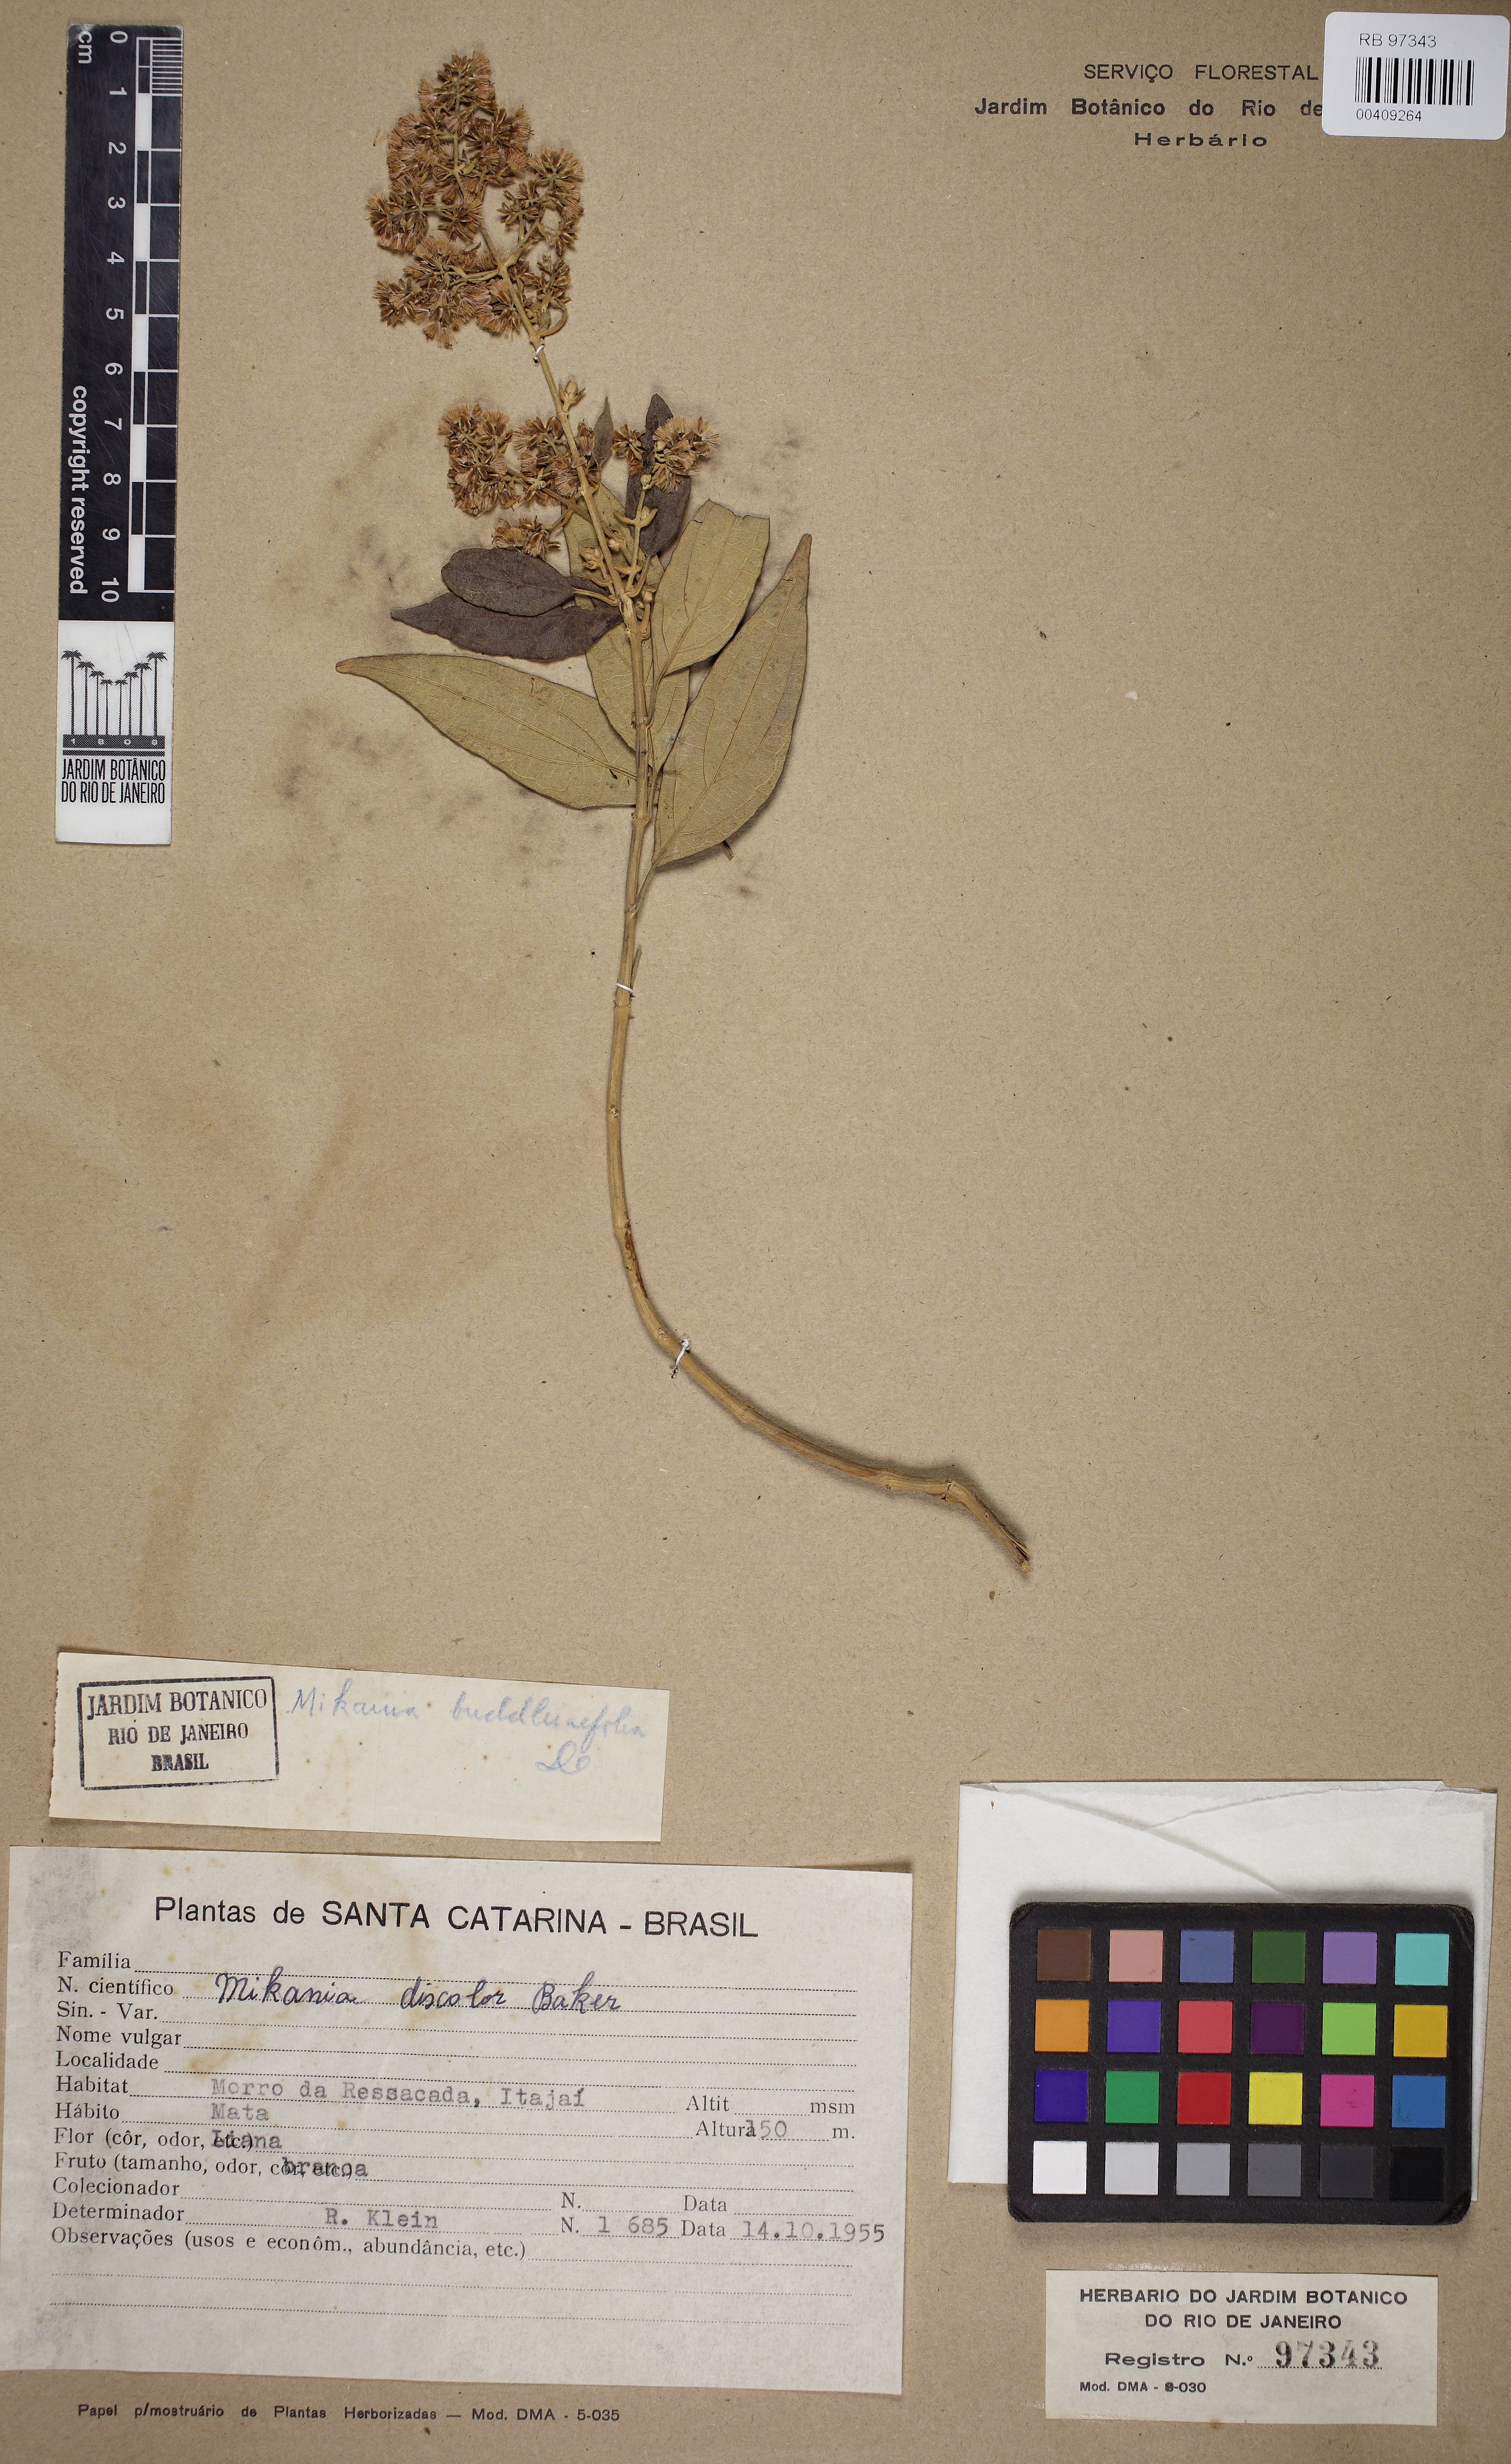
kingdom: Plantae
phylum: Tracheophyta
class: Magnoliopsida
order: Asterales
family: Asteraceae
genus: Mikania
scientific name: Mikania buddlejifolia
